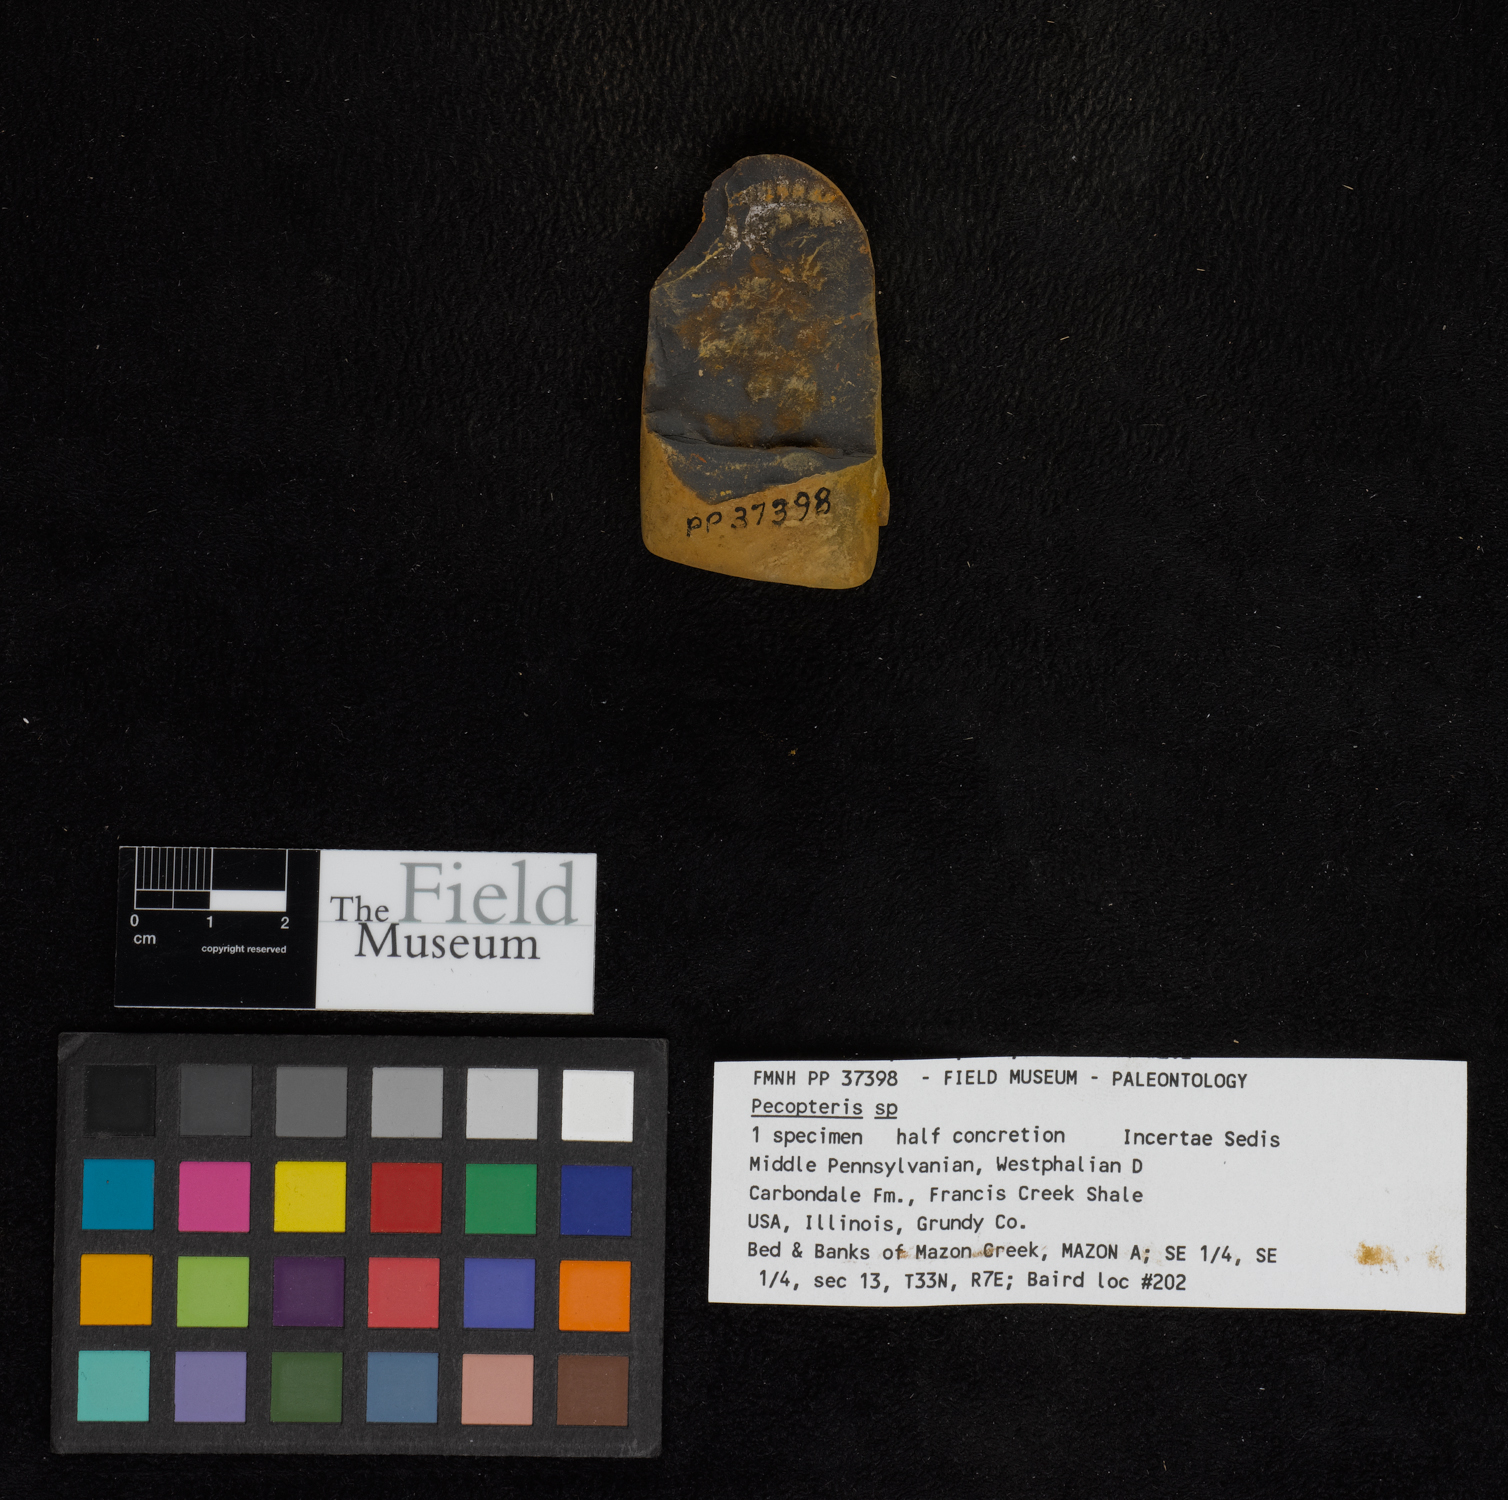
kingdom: Plantae
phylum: Tracheophyta
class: Polypodiopsida
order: Marattiales
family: Asterothecaceae
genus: Pecopteris
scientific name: Pecopteris
